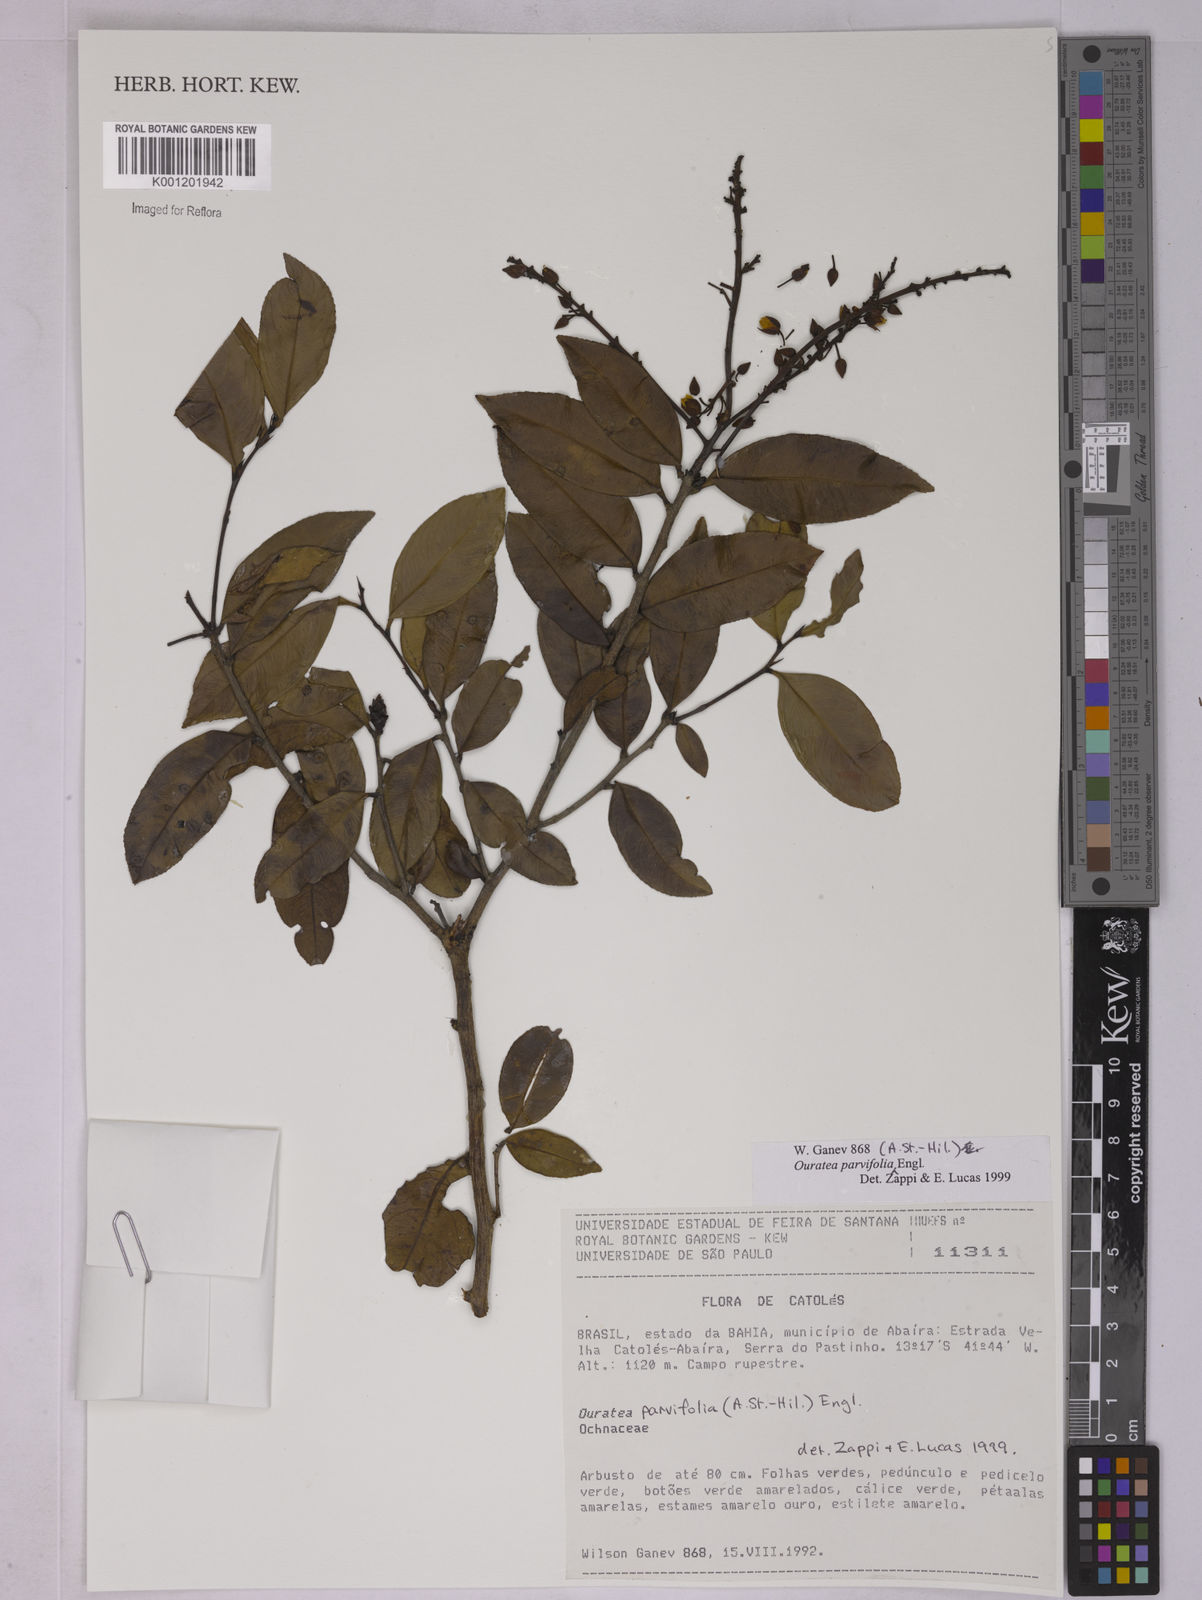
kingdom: Plantae
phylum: Tracheophyta
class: Magnoliopsida
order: Malpighiales
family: Ochnaceae
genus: Ouratea
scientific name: Ouratea parvifolia
